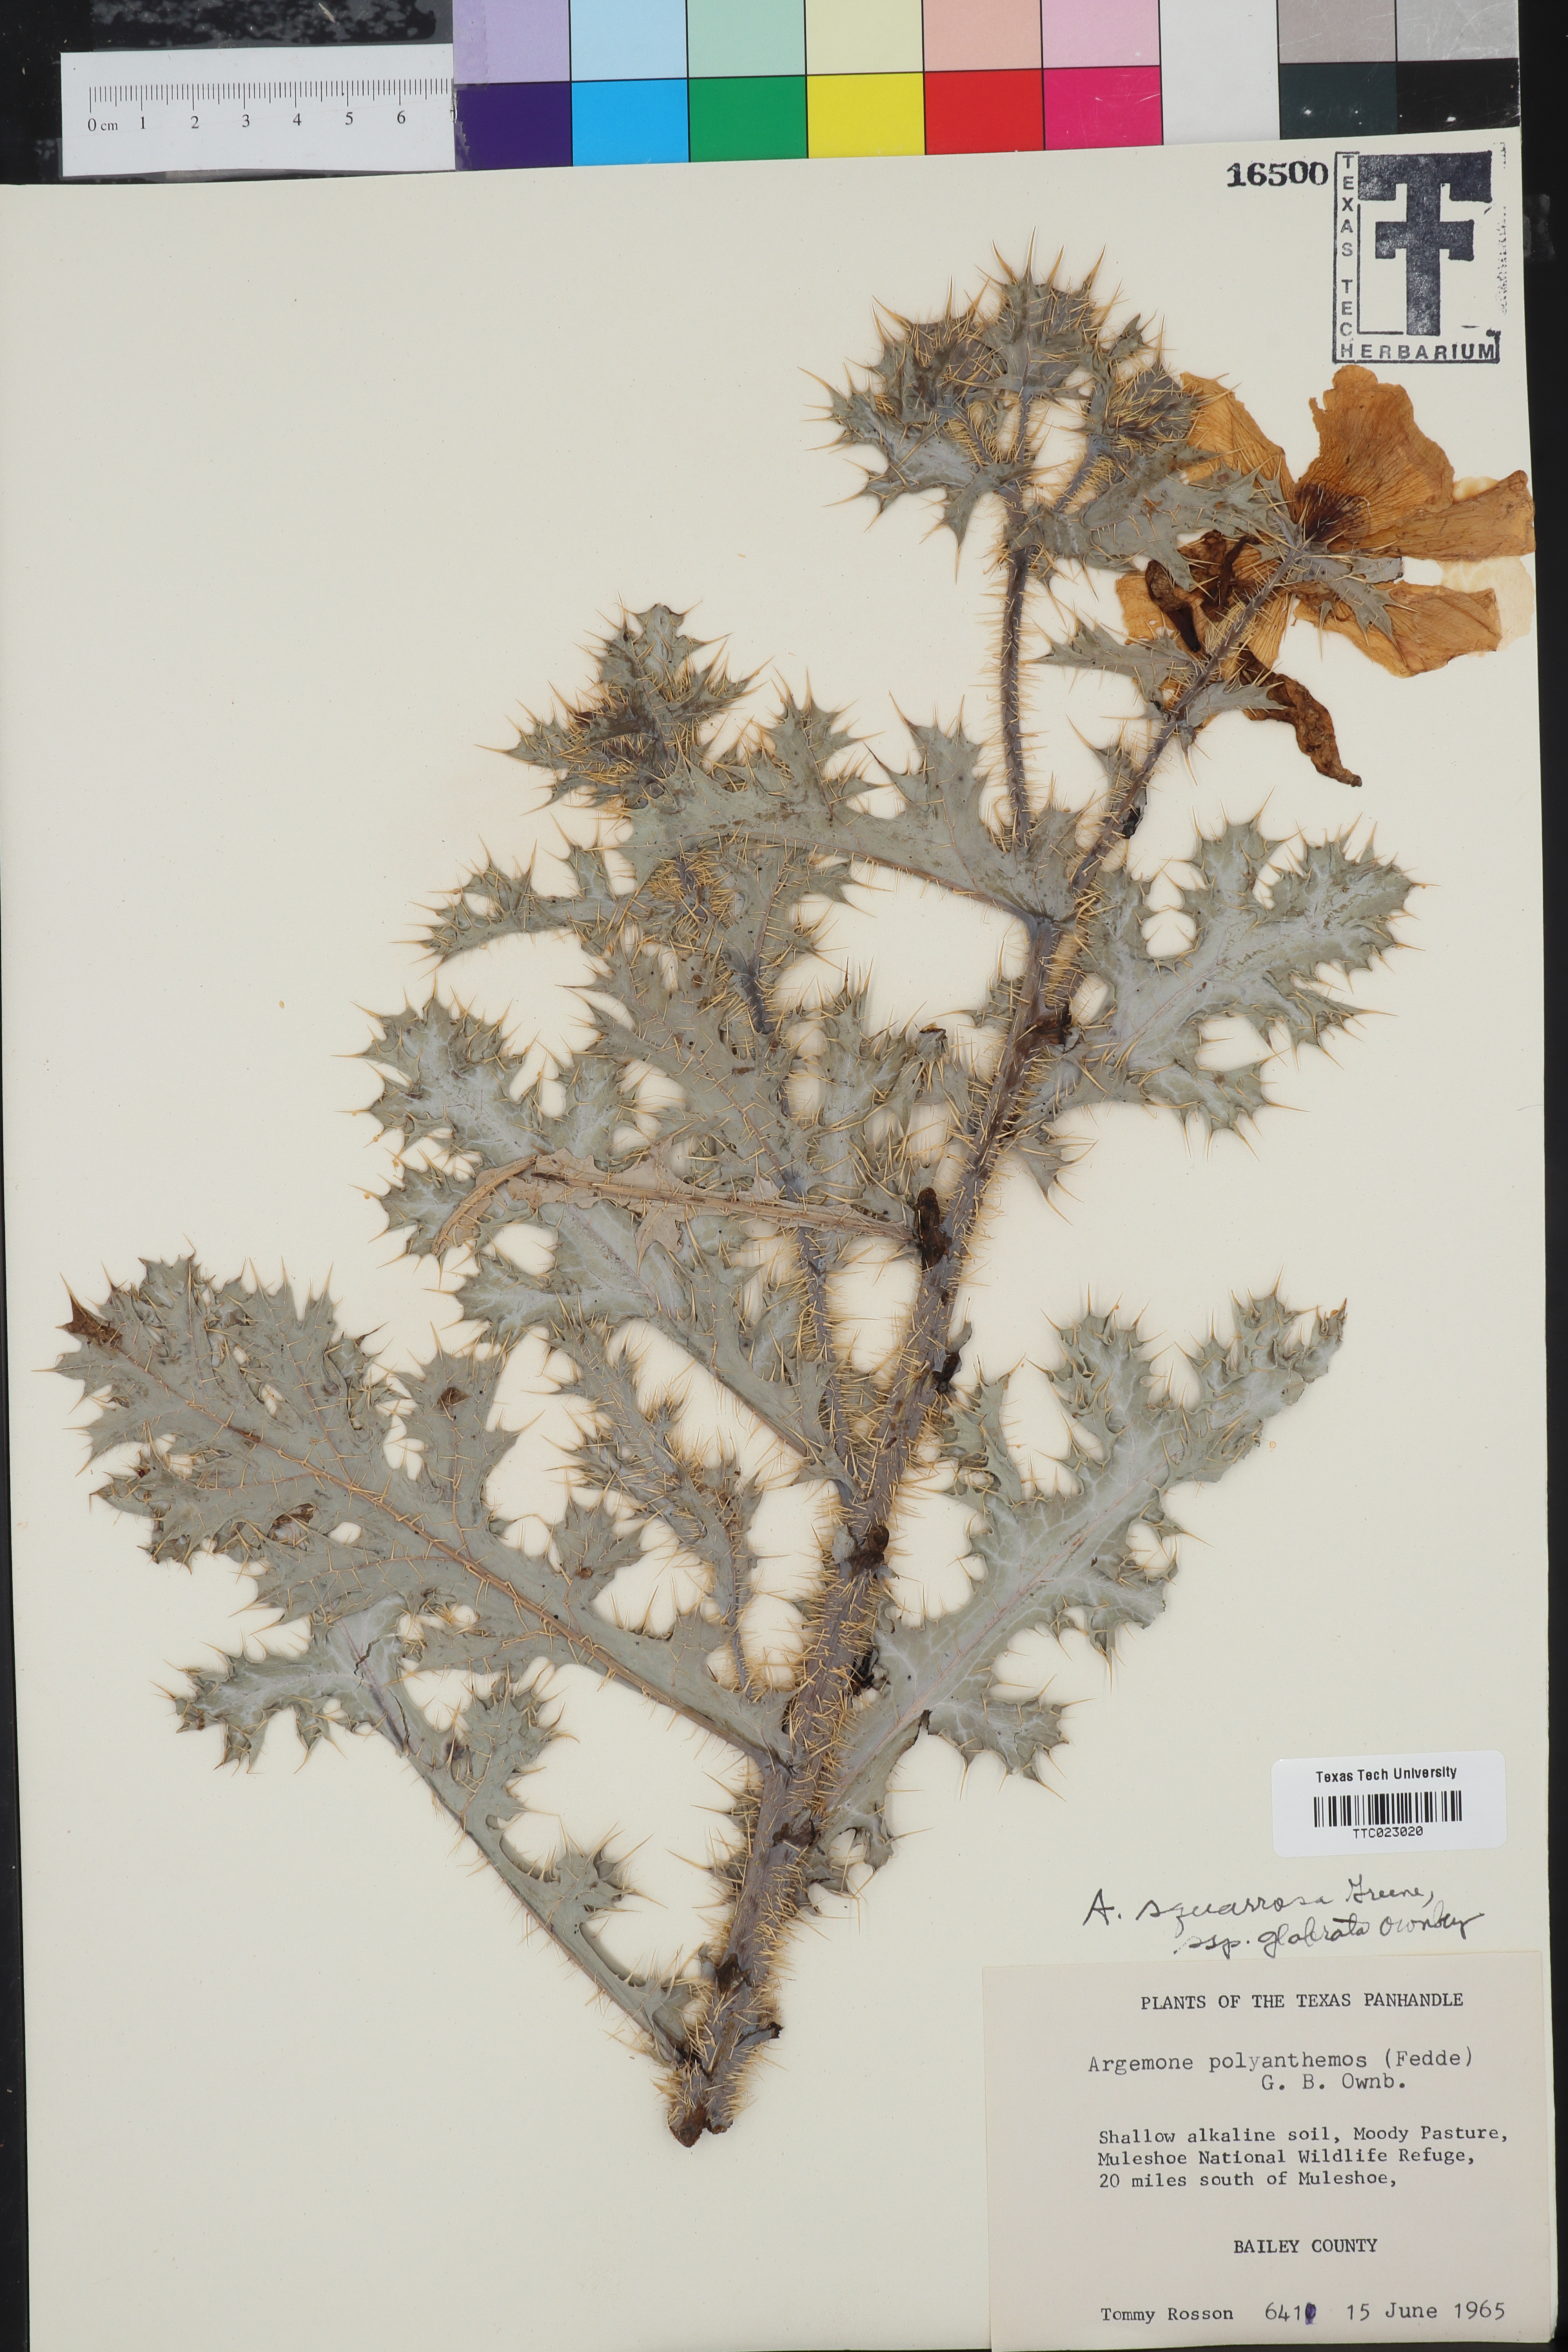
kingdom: Plantae
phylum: Tracheophyta
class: Magnoliopsida
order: Ranunculales
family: Papaveraceae
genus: Argemone
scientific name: Argemone squarrosa
